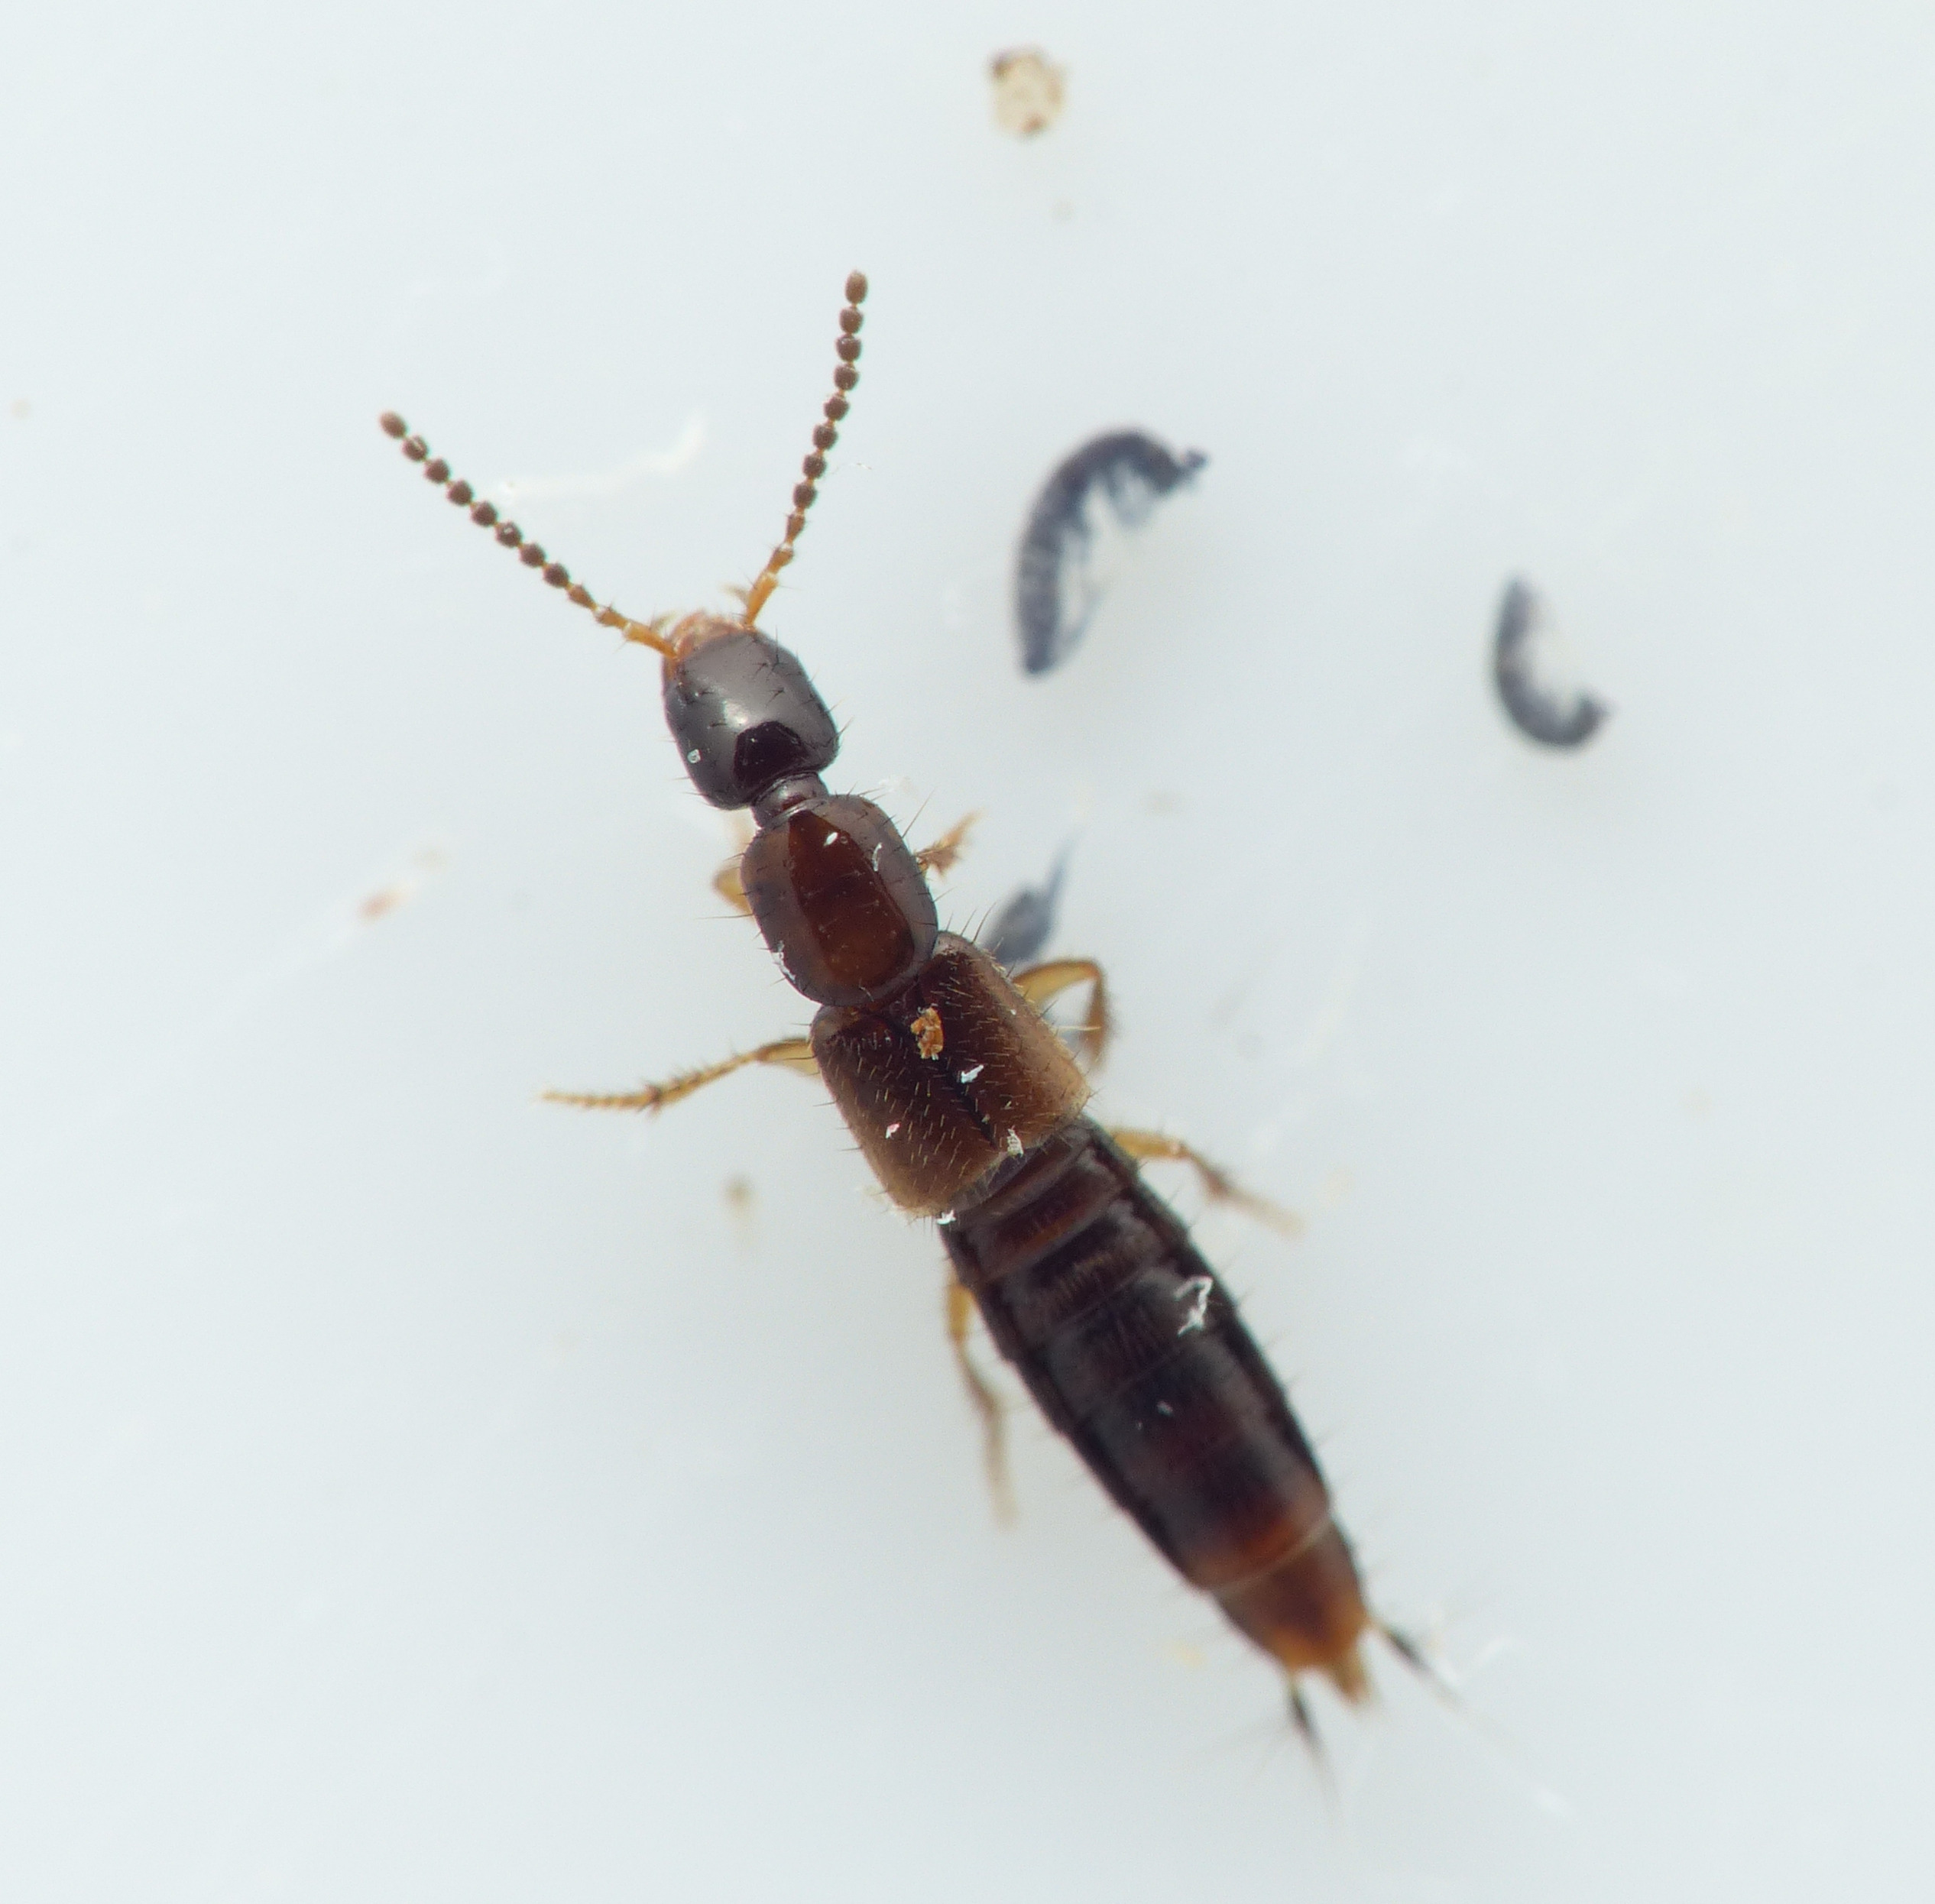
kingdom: Animalia
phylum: Arthropoda
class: Insecta
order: Coleoptera
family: Staphylinidae
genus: Gabronthus
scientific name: Gabronthus thermarum
